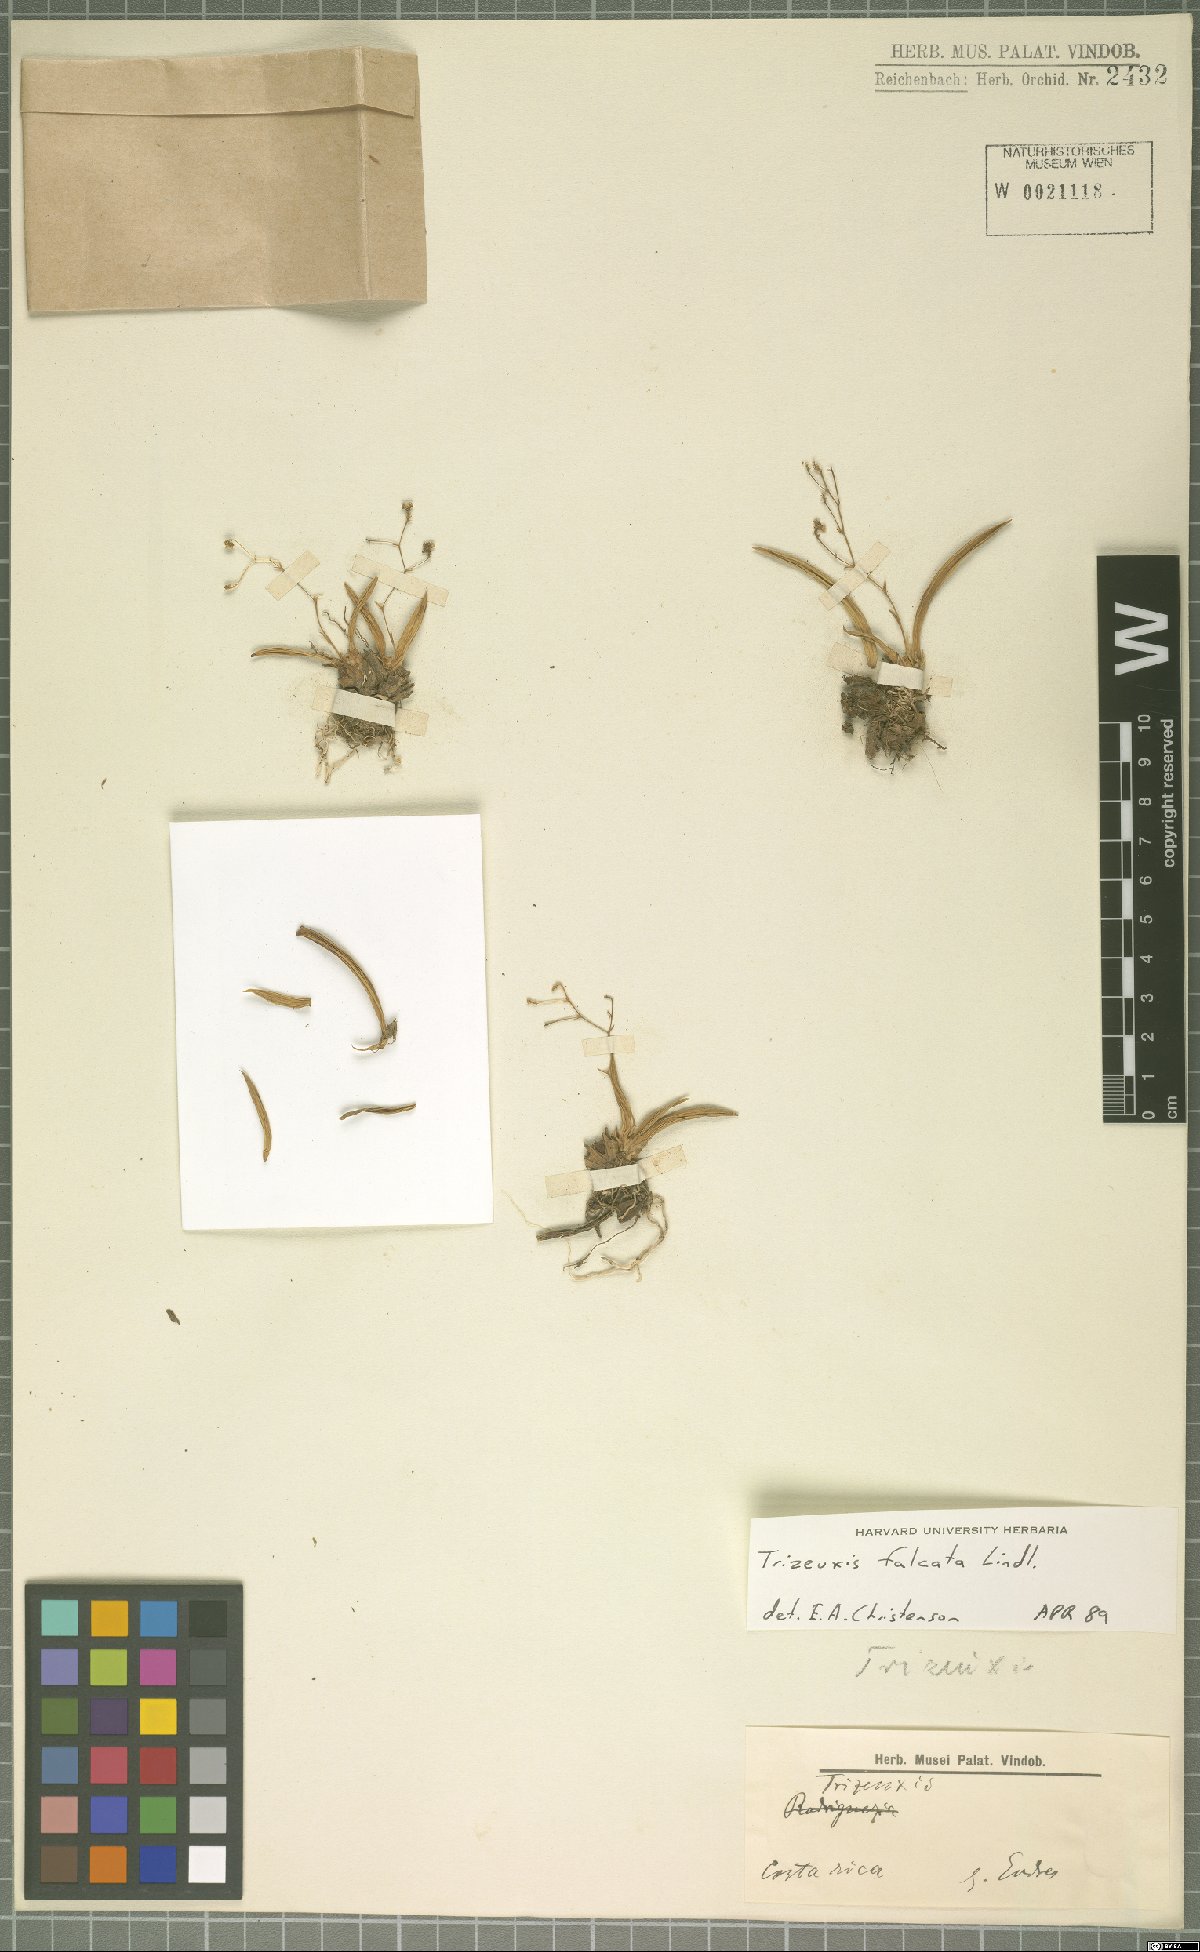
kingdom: Plantae
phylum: Tracheophyta
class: Liliopsida
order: Asparagales
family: Orchidaceae
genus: Trizeuxis
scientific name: Trizeuxis falcata
